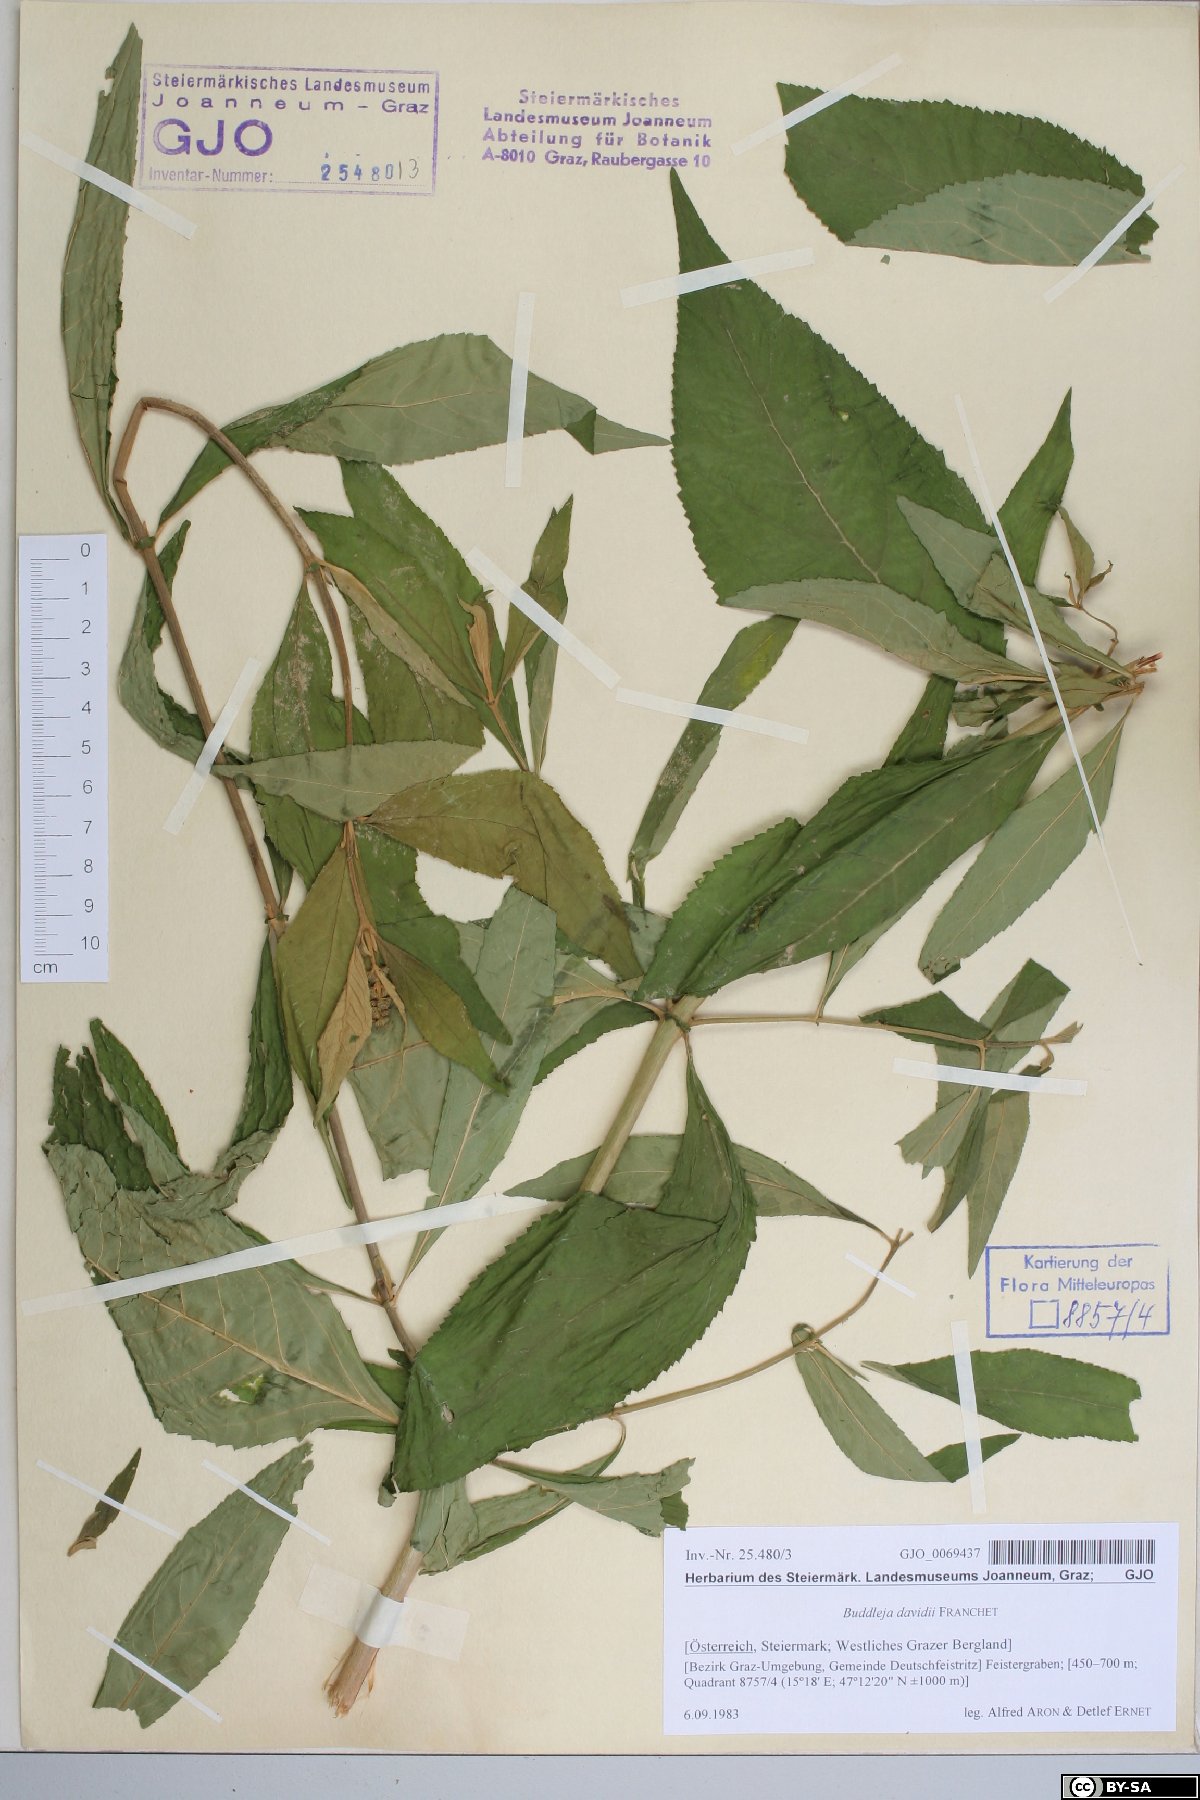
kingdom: Plantae
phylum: Tracheophyta
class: Magnoliopsida
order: Lamiales
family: Scrophulariaceae
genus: Buddleja
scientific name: Buddleja davidii
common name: Butterfly-bush
